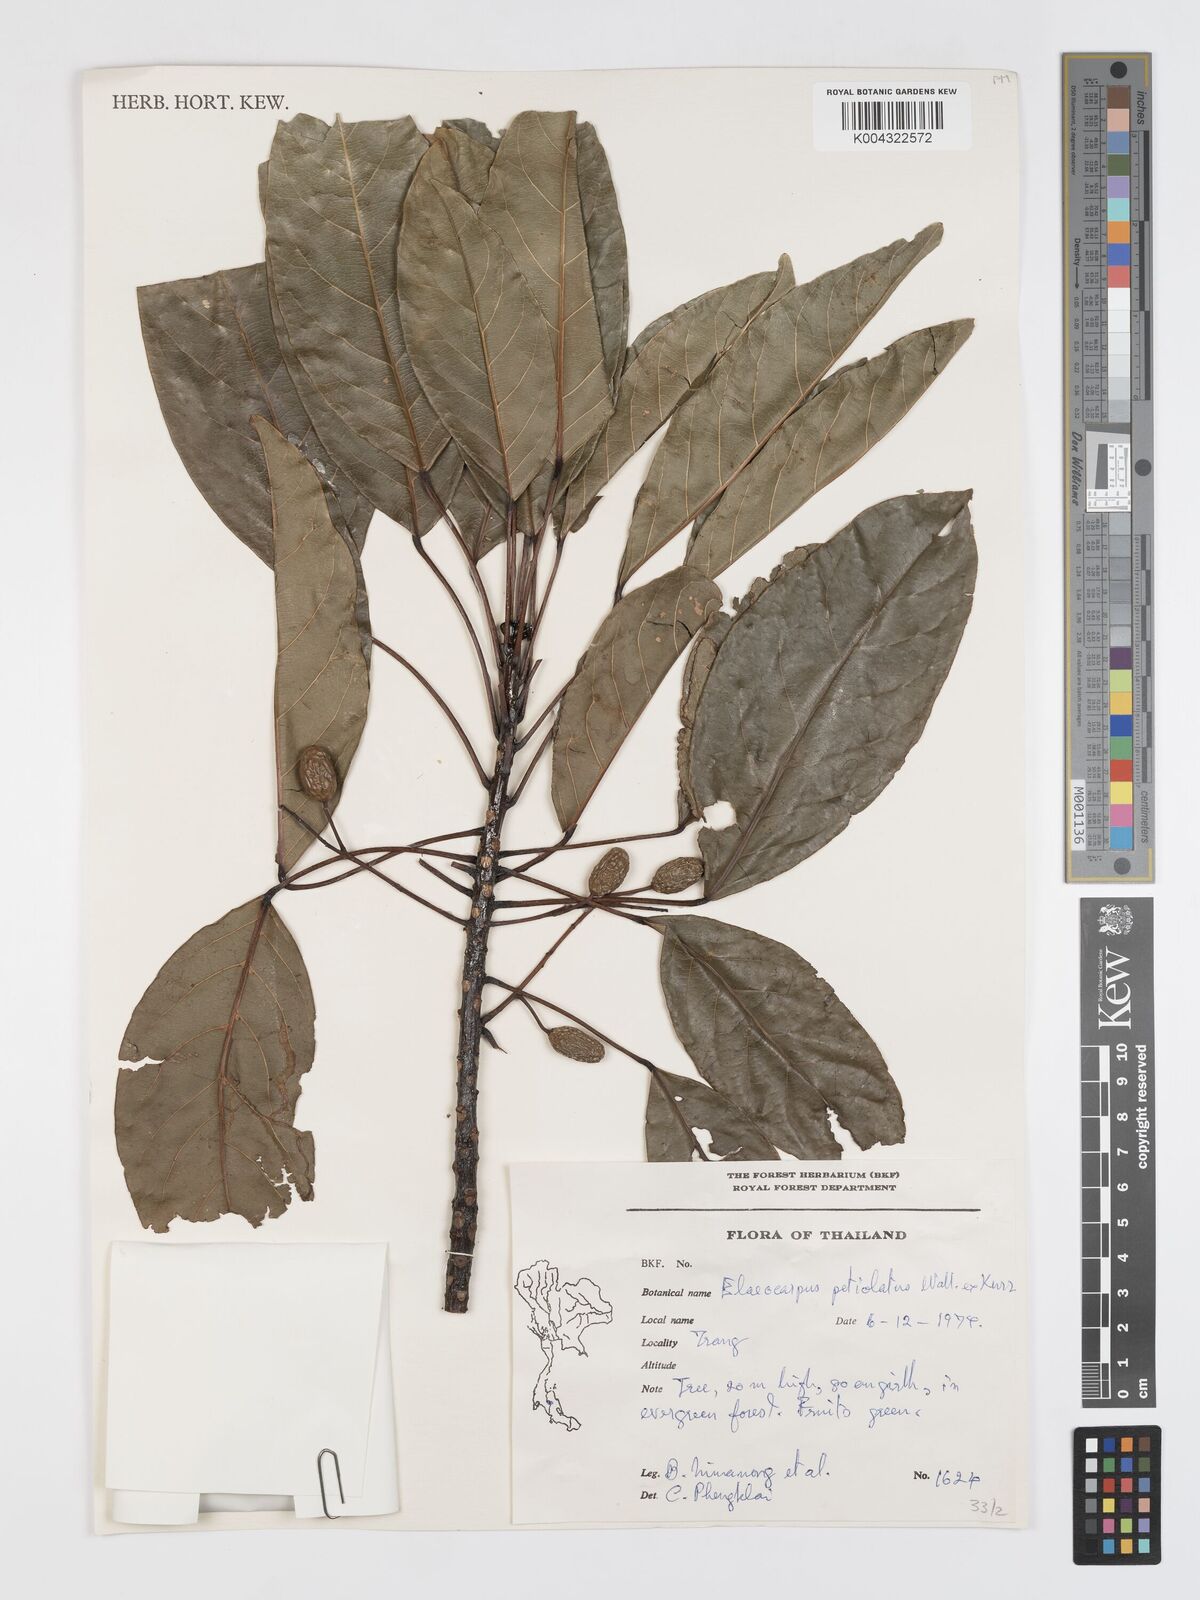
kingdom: Plantae
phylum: Tracheophyta
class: Magnoliopsida
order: Oxalidales
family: Elaeocarpaceae
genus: Elaeocarpus
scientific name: Elaeocarpus petiolatus
